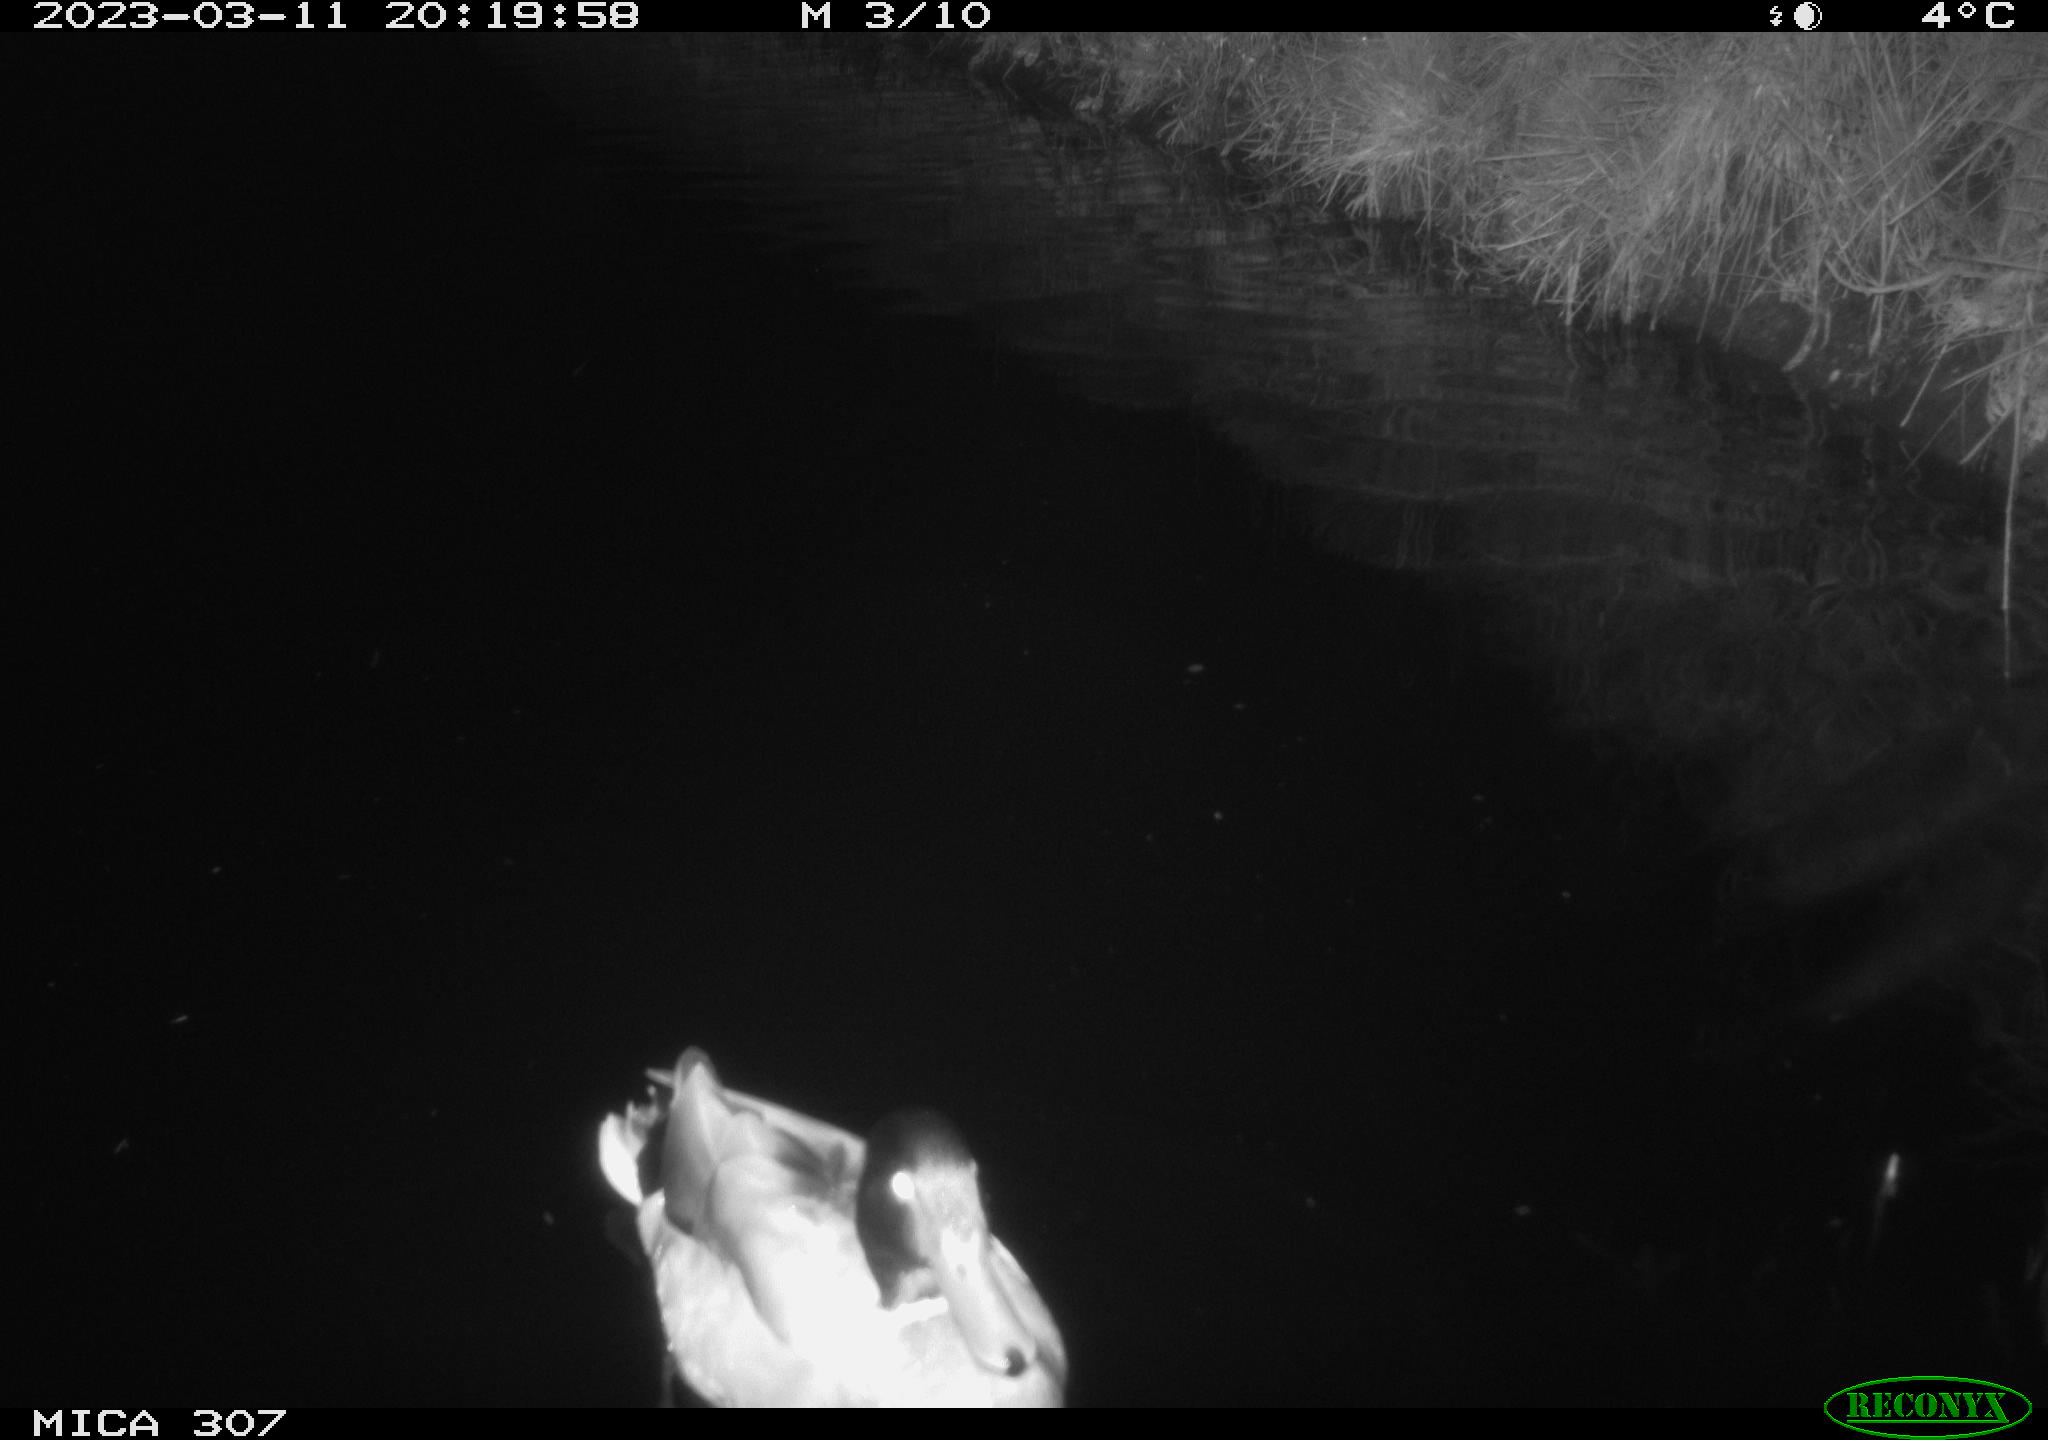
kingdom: Animalia
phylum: Chordata
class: Aves
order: Anseriformes
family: Anatidae
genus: Anas
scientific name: Anas
